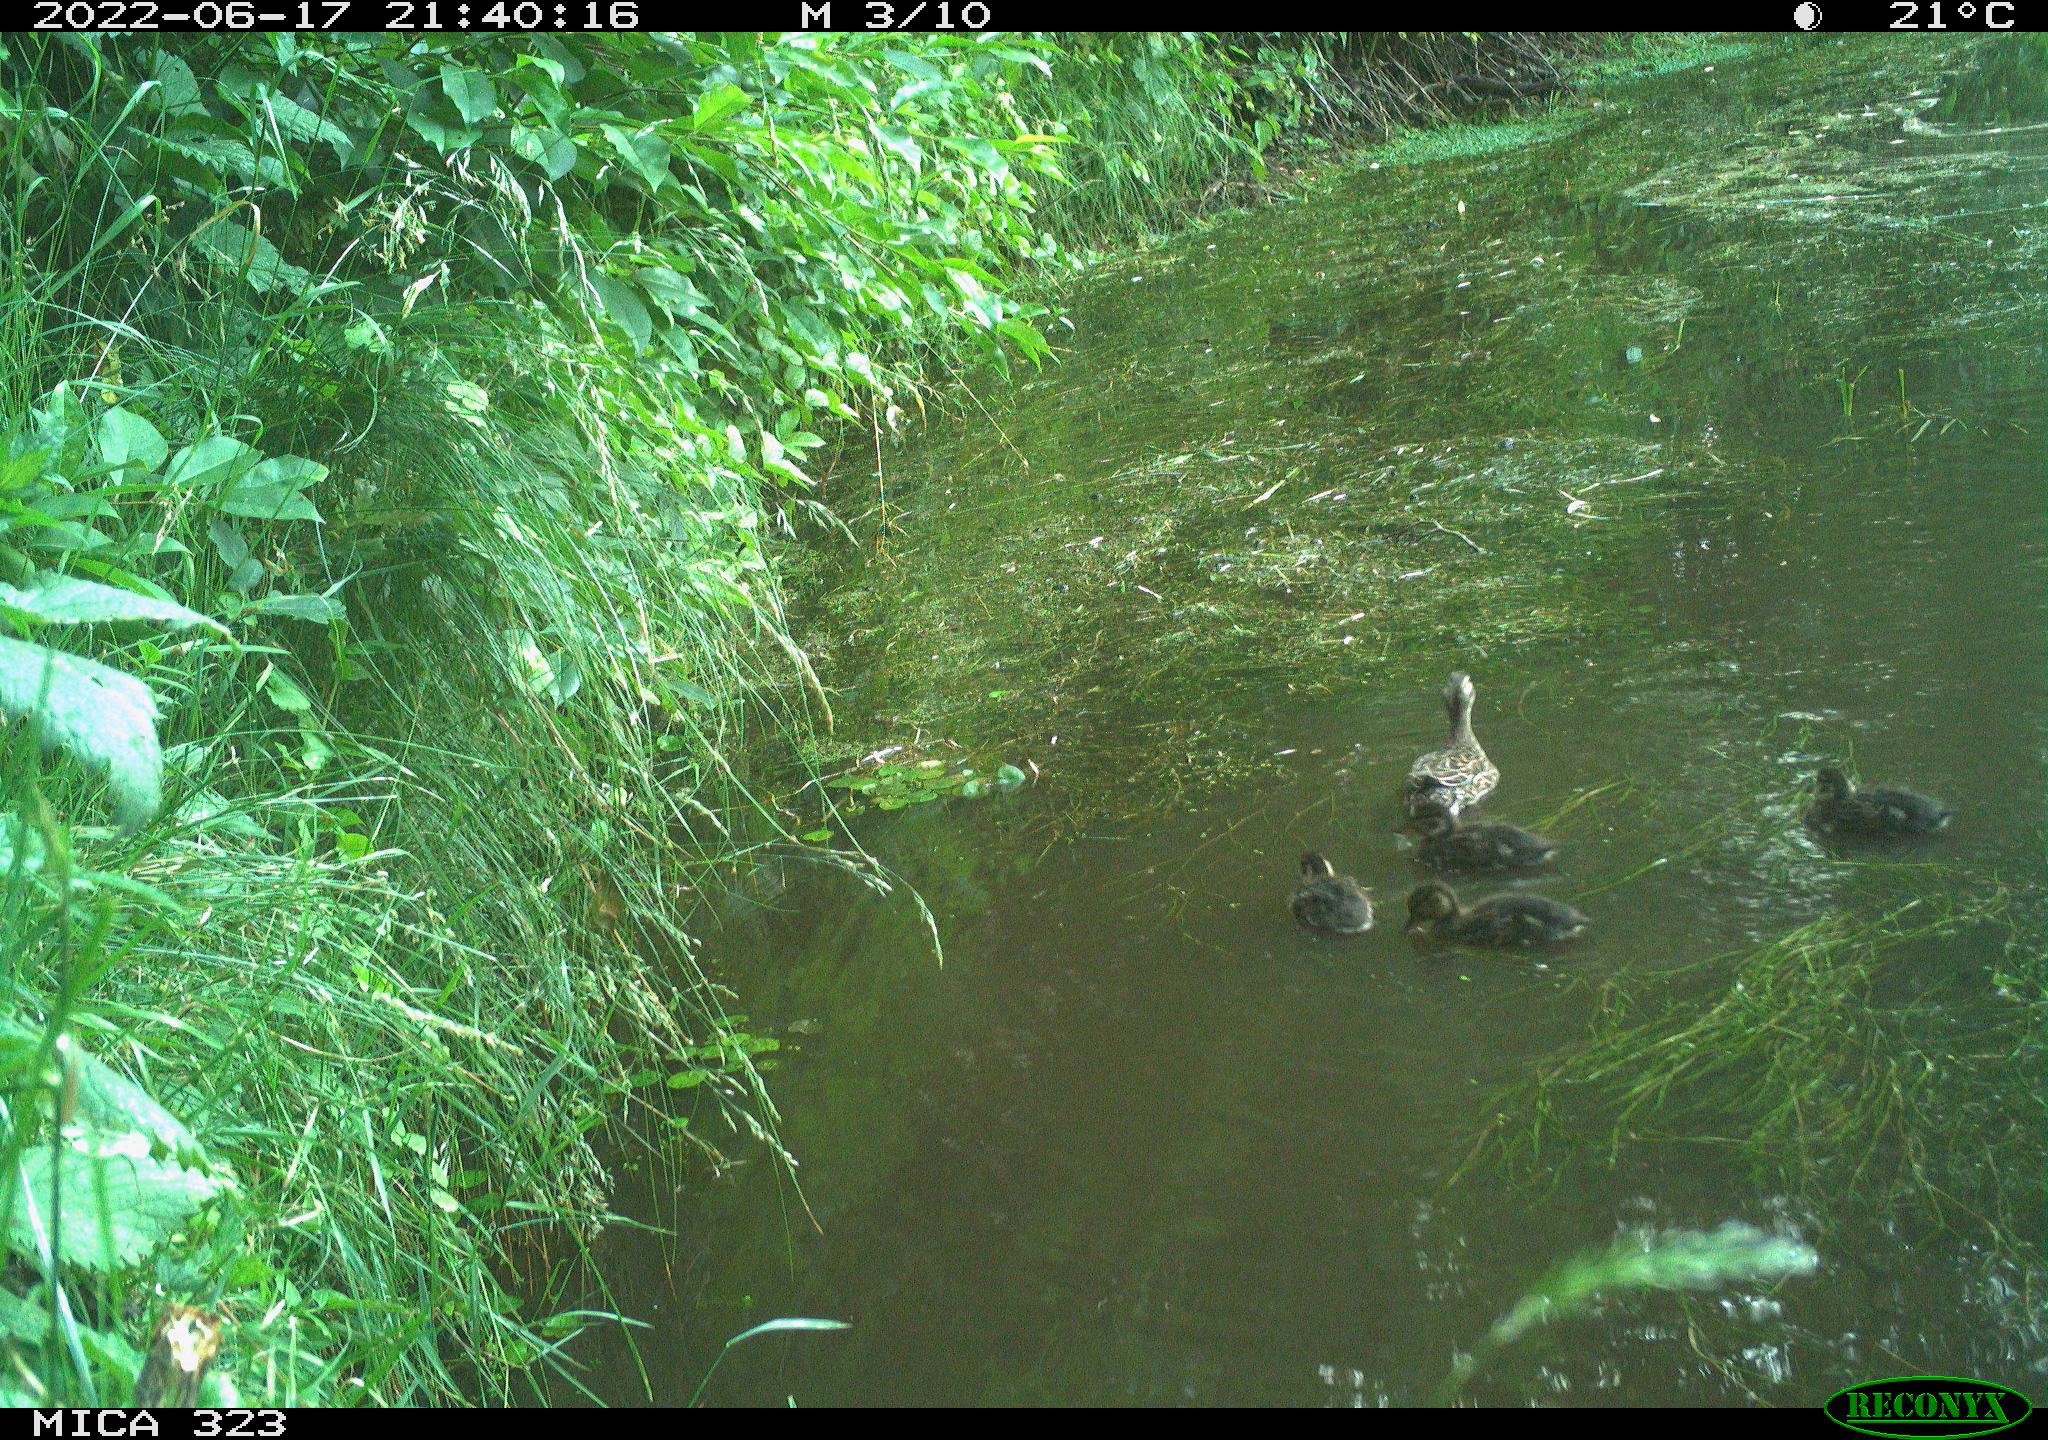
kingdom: Animalia
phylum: Chordata
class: Aves
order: Anseriformes
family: Anatidae
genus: Anas
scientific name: Anas platyrhynchos
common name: Mallard
